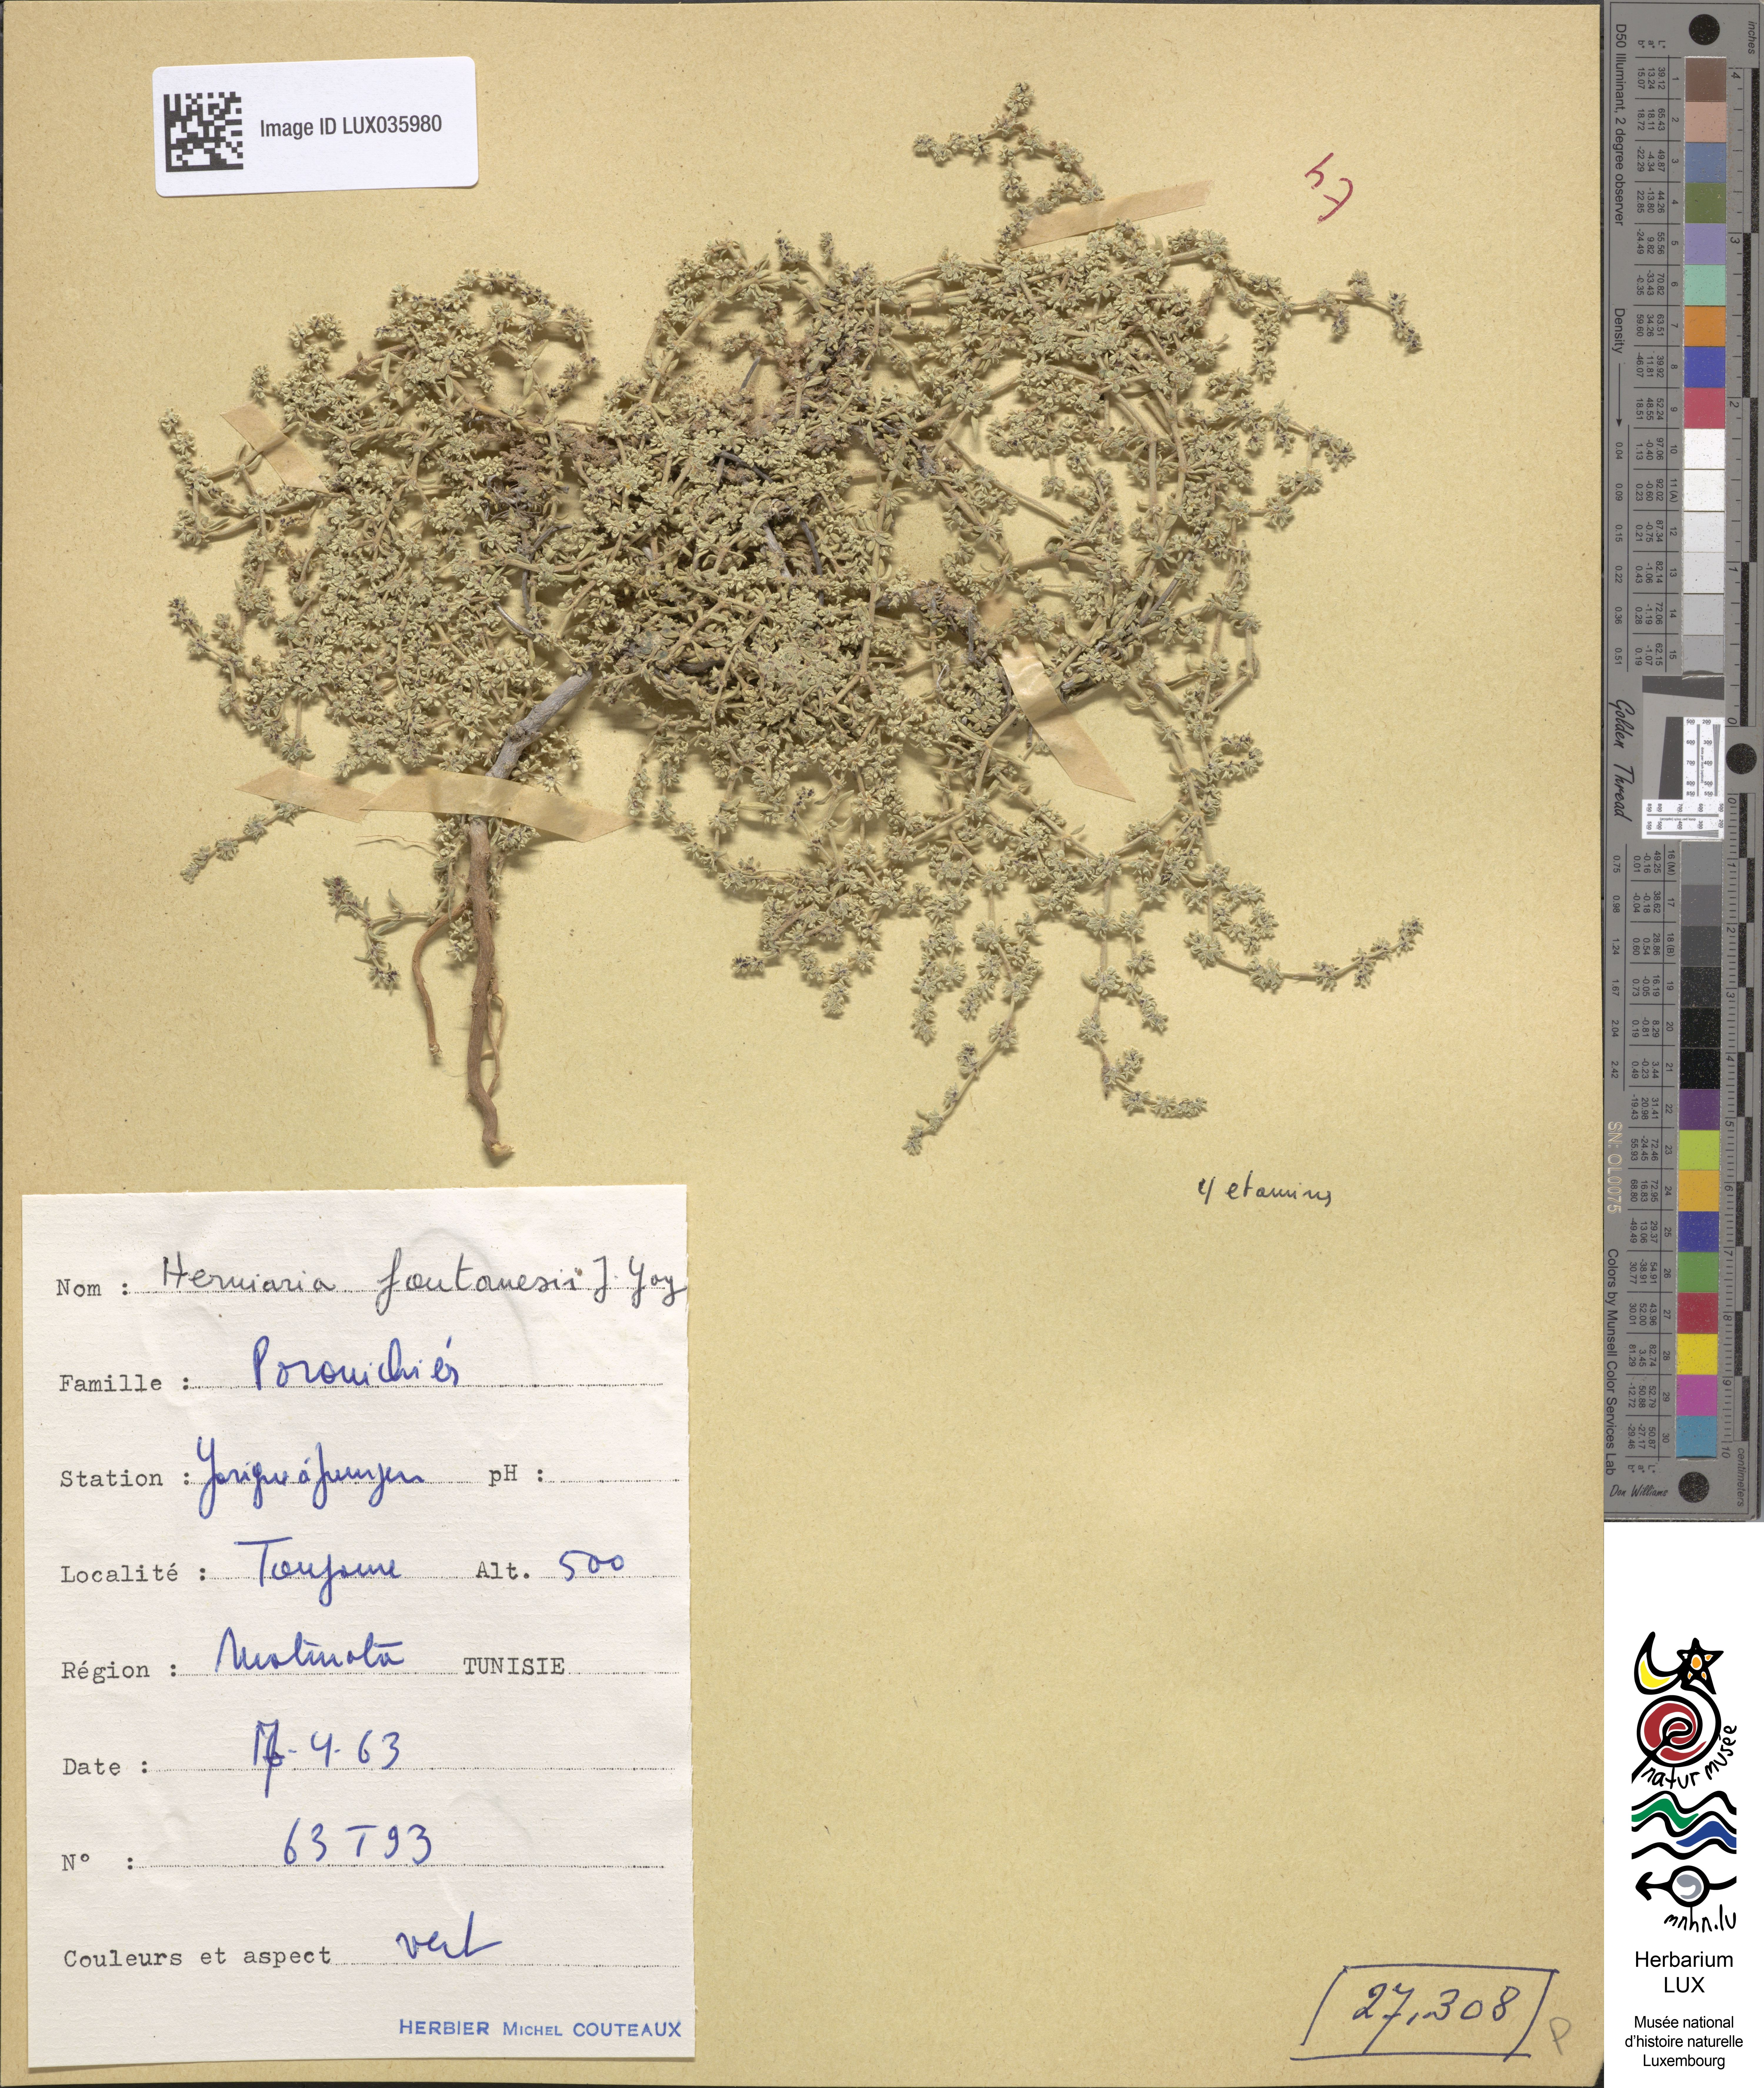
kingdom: Plantae
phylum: Tracheophyta
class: Magnoliopsida
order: Caryophyllales
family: Caryophyllaceae
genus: Herniaria
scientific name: Herniaria fontanesii
